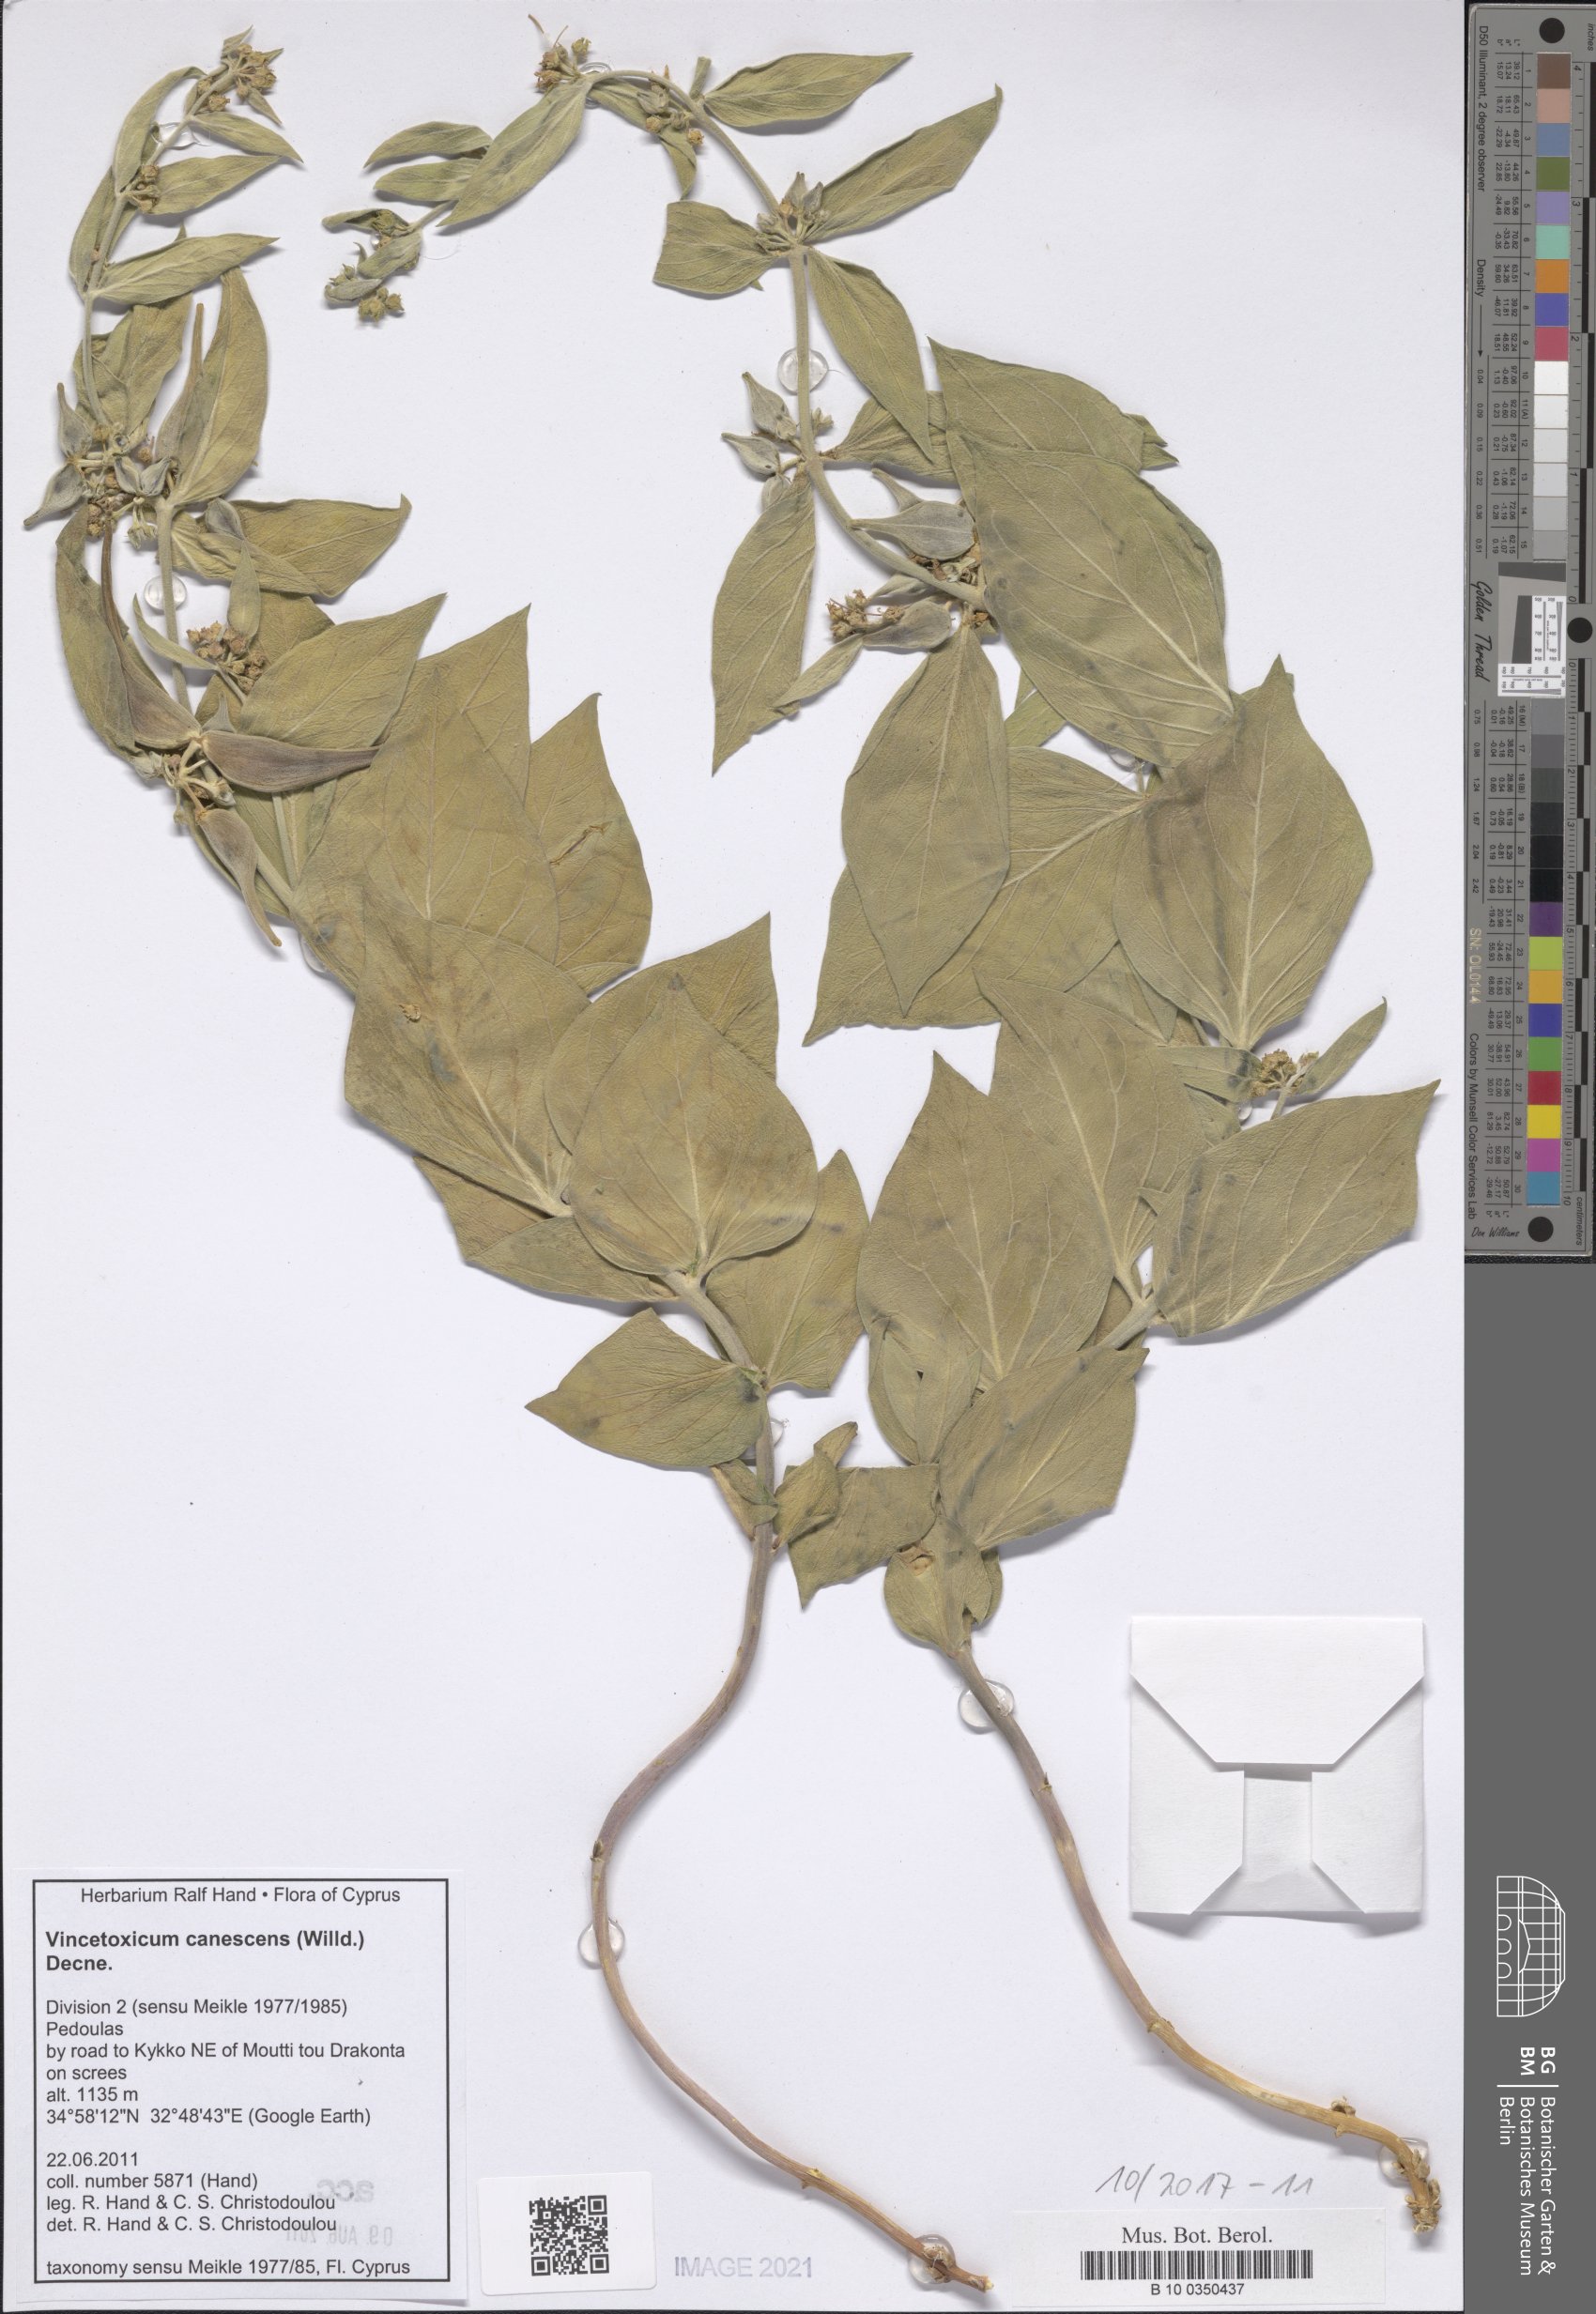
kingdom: Plantae
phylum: Tracheophyta
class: Magnoliopsida
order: Gentianales
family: Apocynaceae
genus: Vincetoxicum
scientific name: Vincetoxicum canescens
